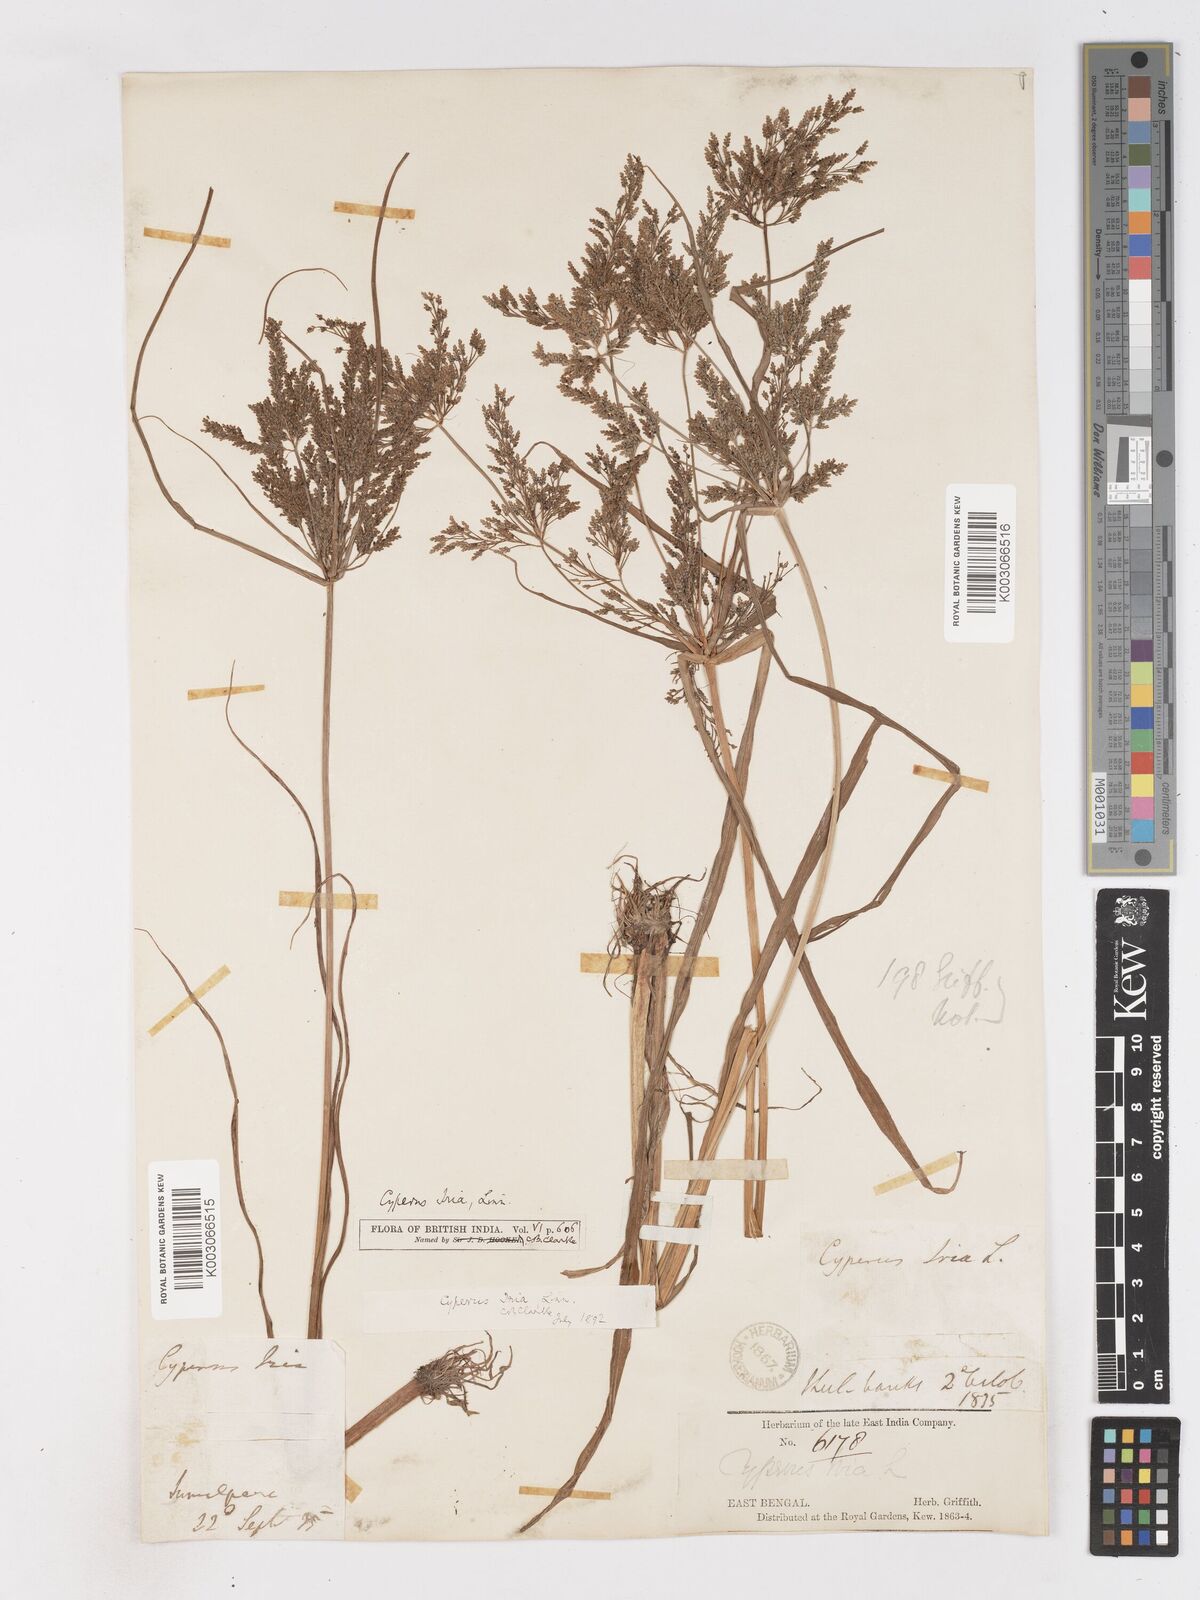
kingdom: Plantae
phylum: Tracheophyta
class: Liliopsida
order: Poales
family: Cyperaceae
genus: Cyperus
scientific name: Cyperus iria
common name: Ricefield flatsedge
